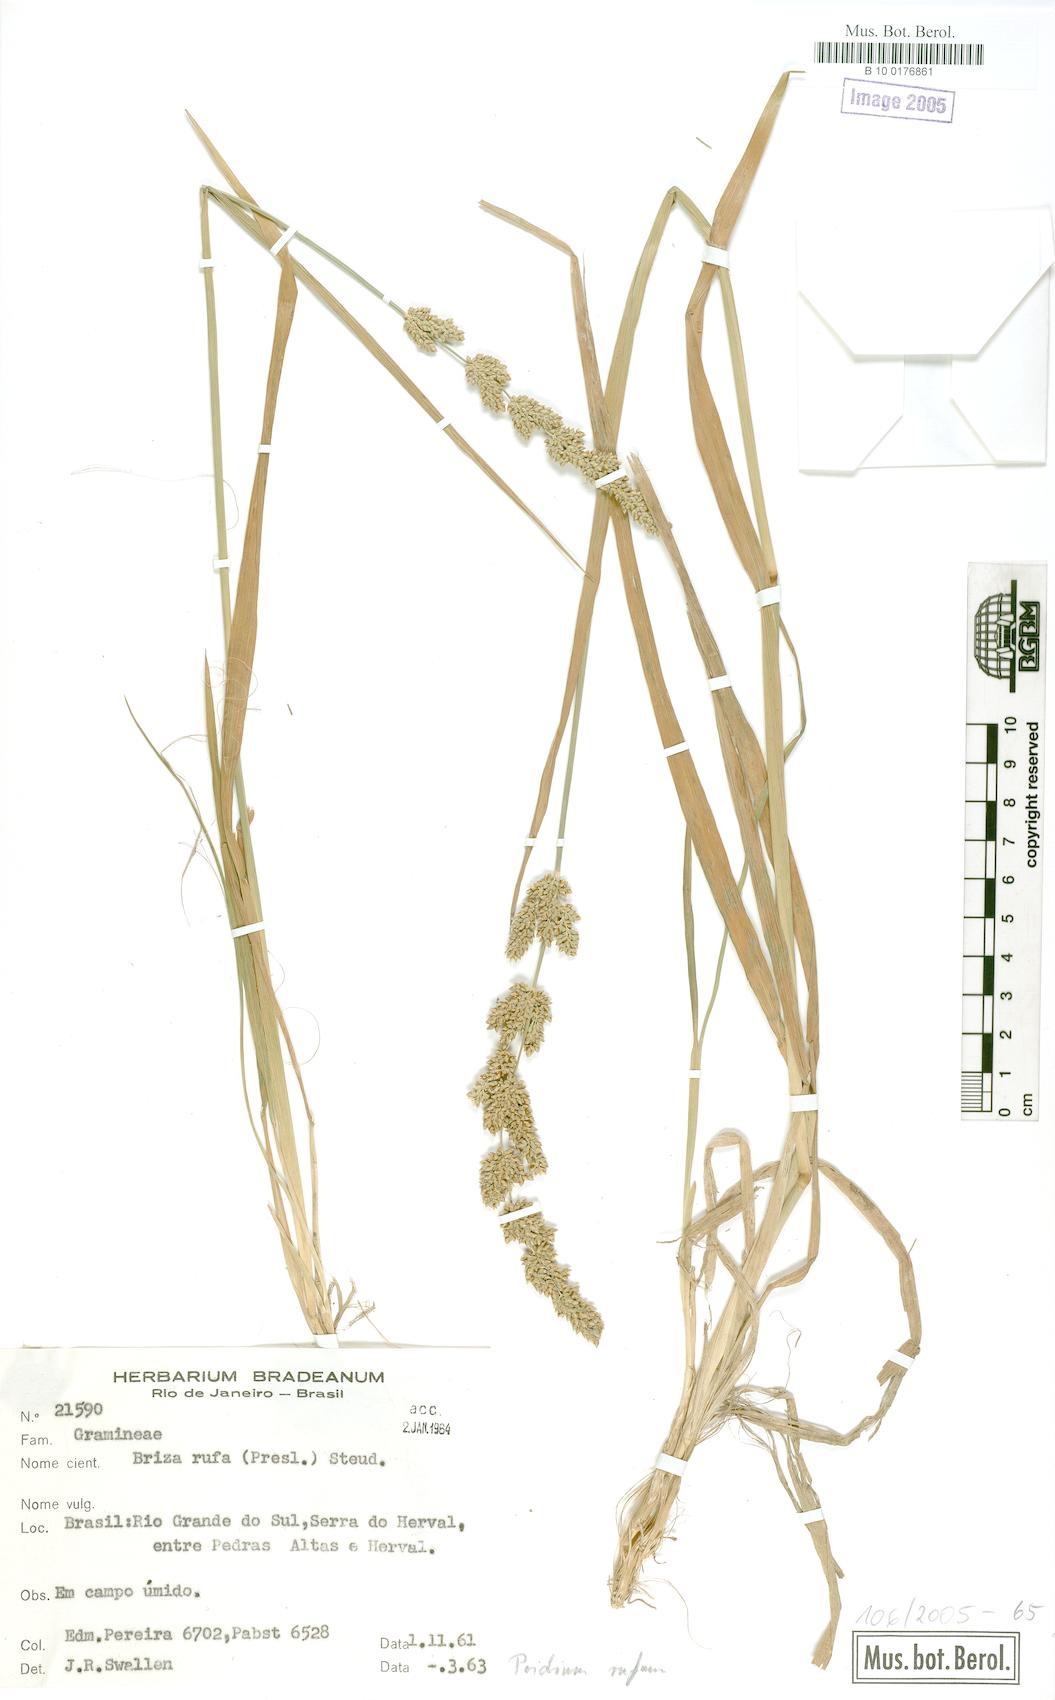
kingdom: Plantae
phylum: Tracheophyta
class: Liliopsida
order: Poales
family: Poaceae
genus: Lombardochloa
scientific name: Lombardochloa rufa
